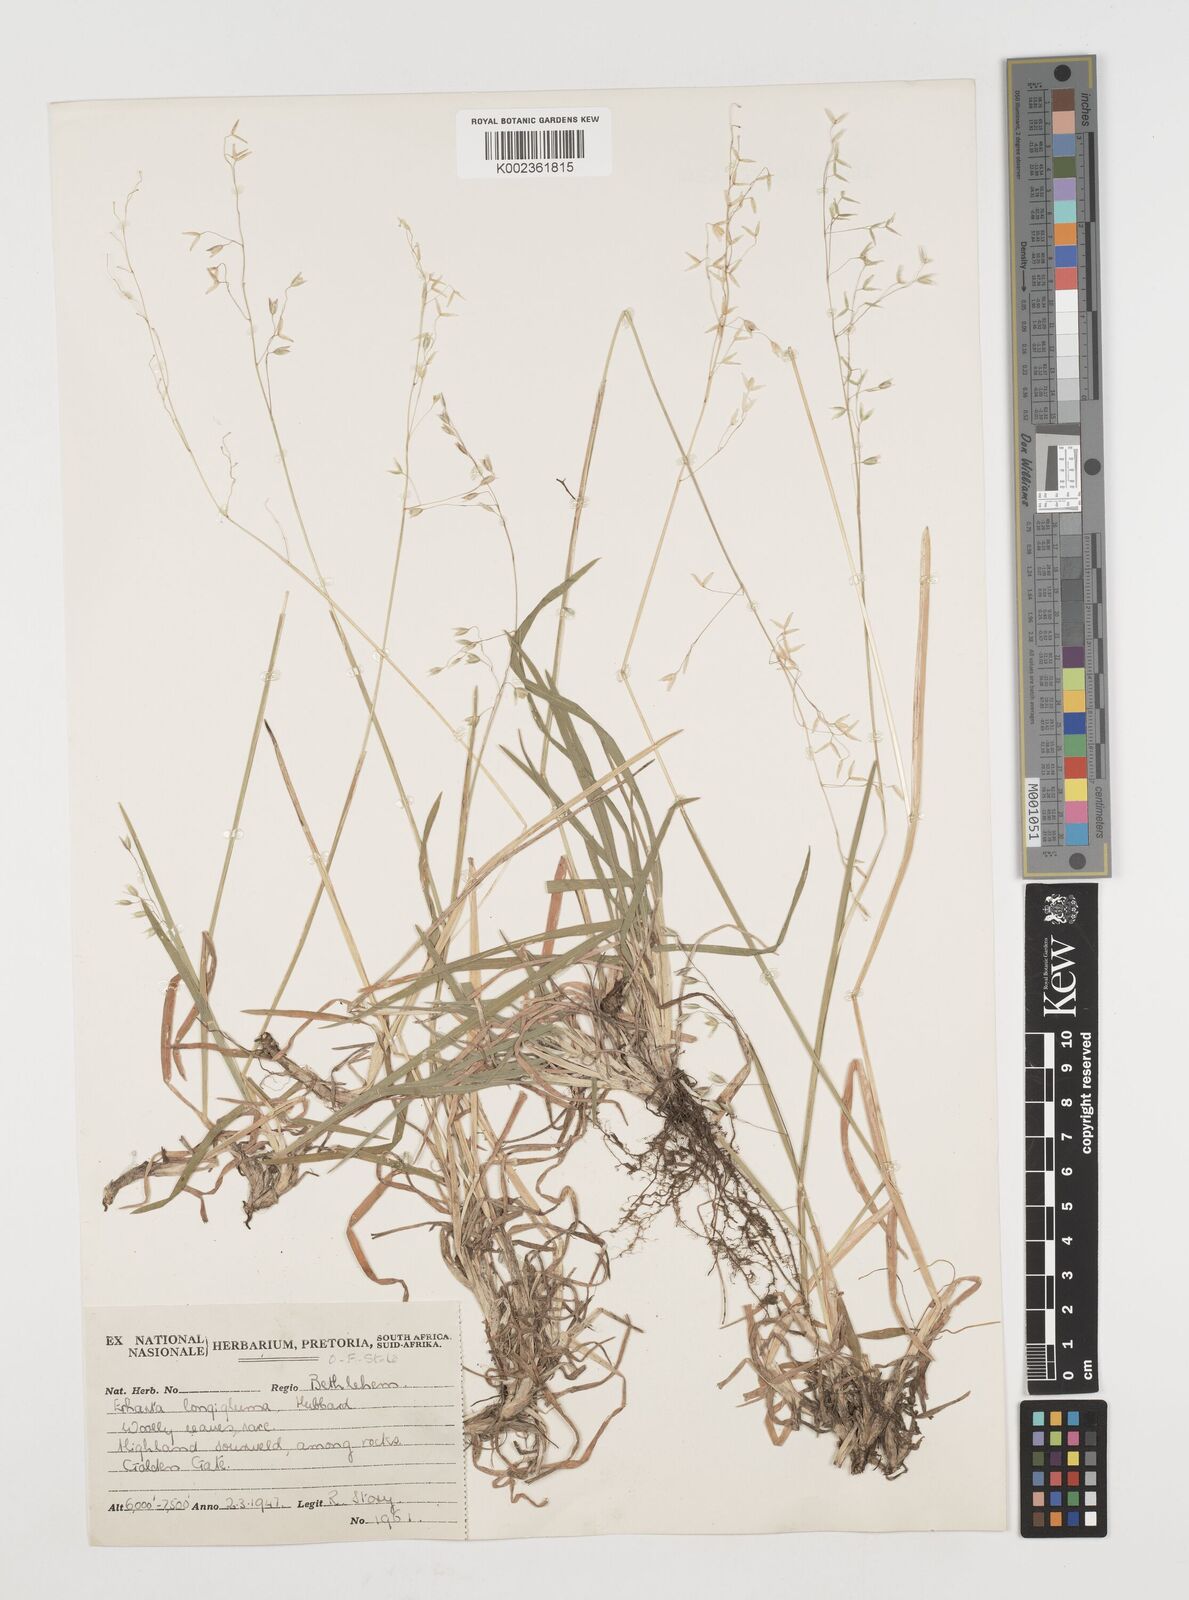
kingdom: Plantae
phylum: Tracheophyta
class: Liliopsida
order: Poales
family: Poaceae
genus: Ehrharta
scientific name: Ehrharta longigluma
